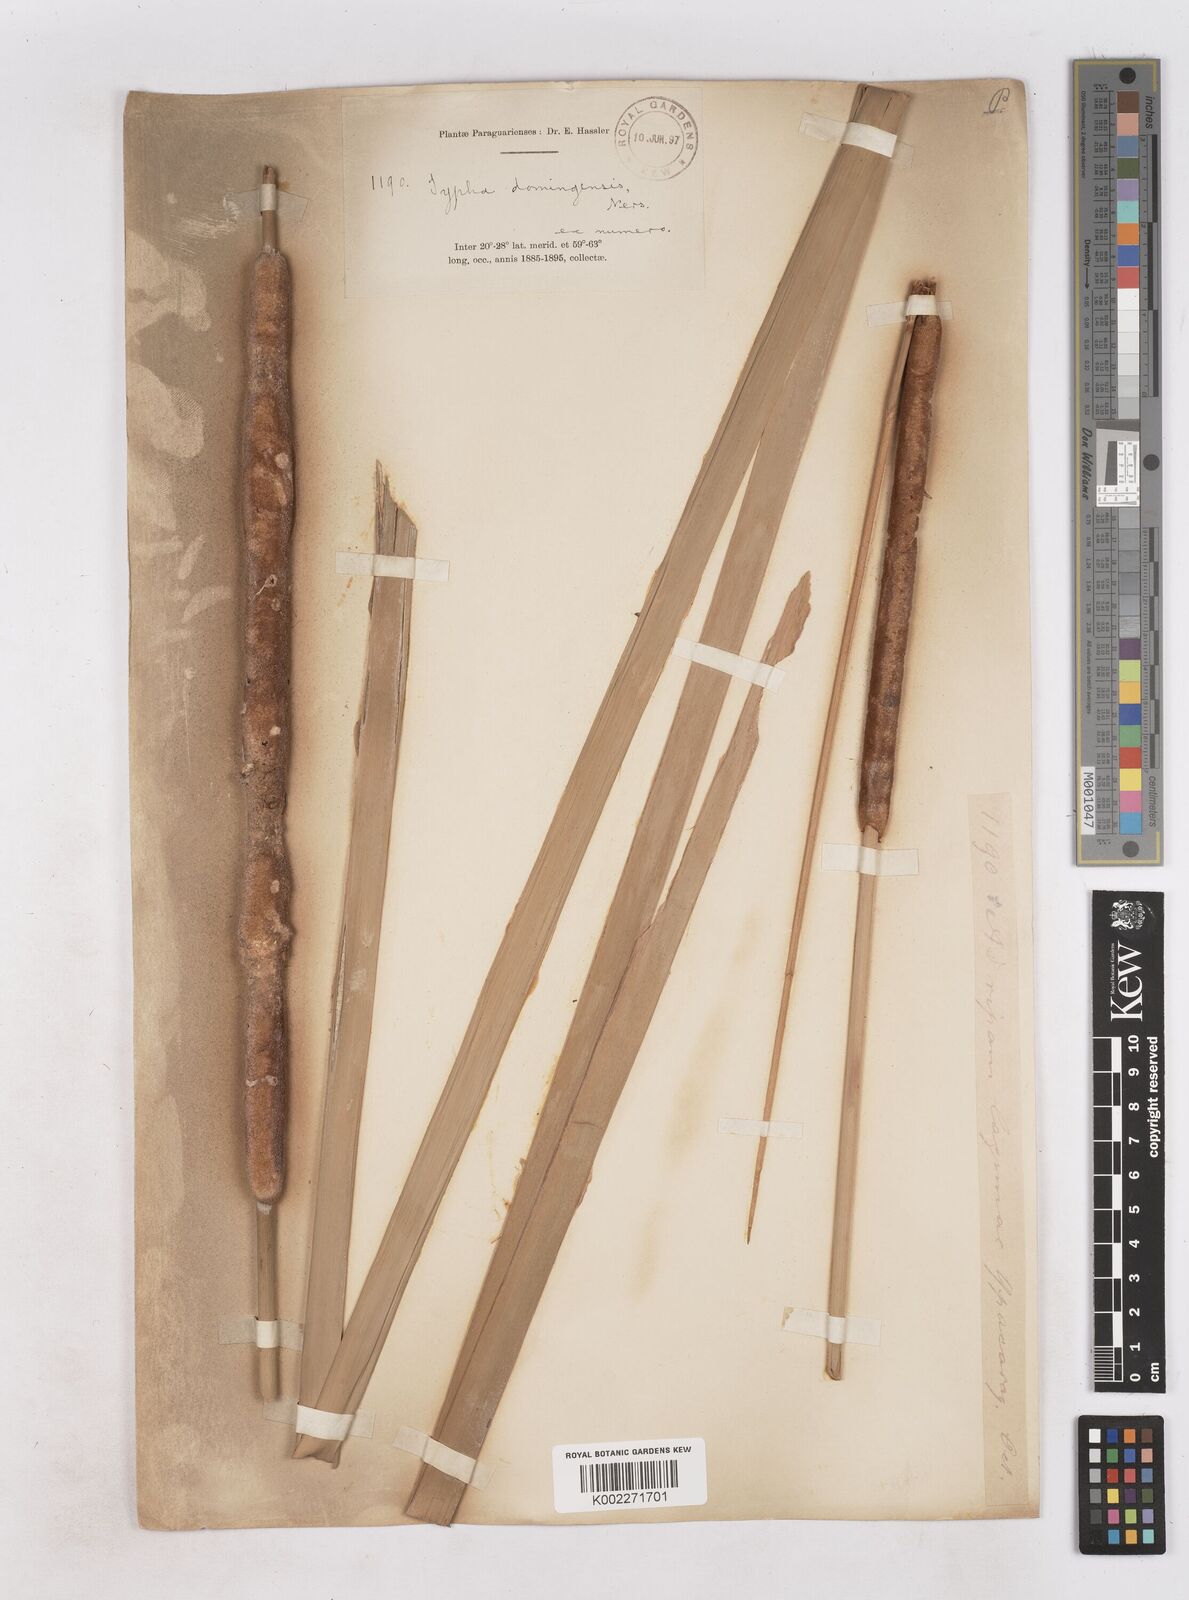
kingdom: Plantae
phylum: Tracheophyta
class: Liliopsida
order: Poales
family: Typhaceae
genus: Typha
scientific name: Typha domingensis
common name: Southern cattail
